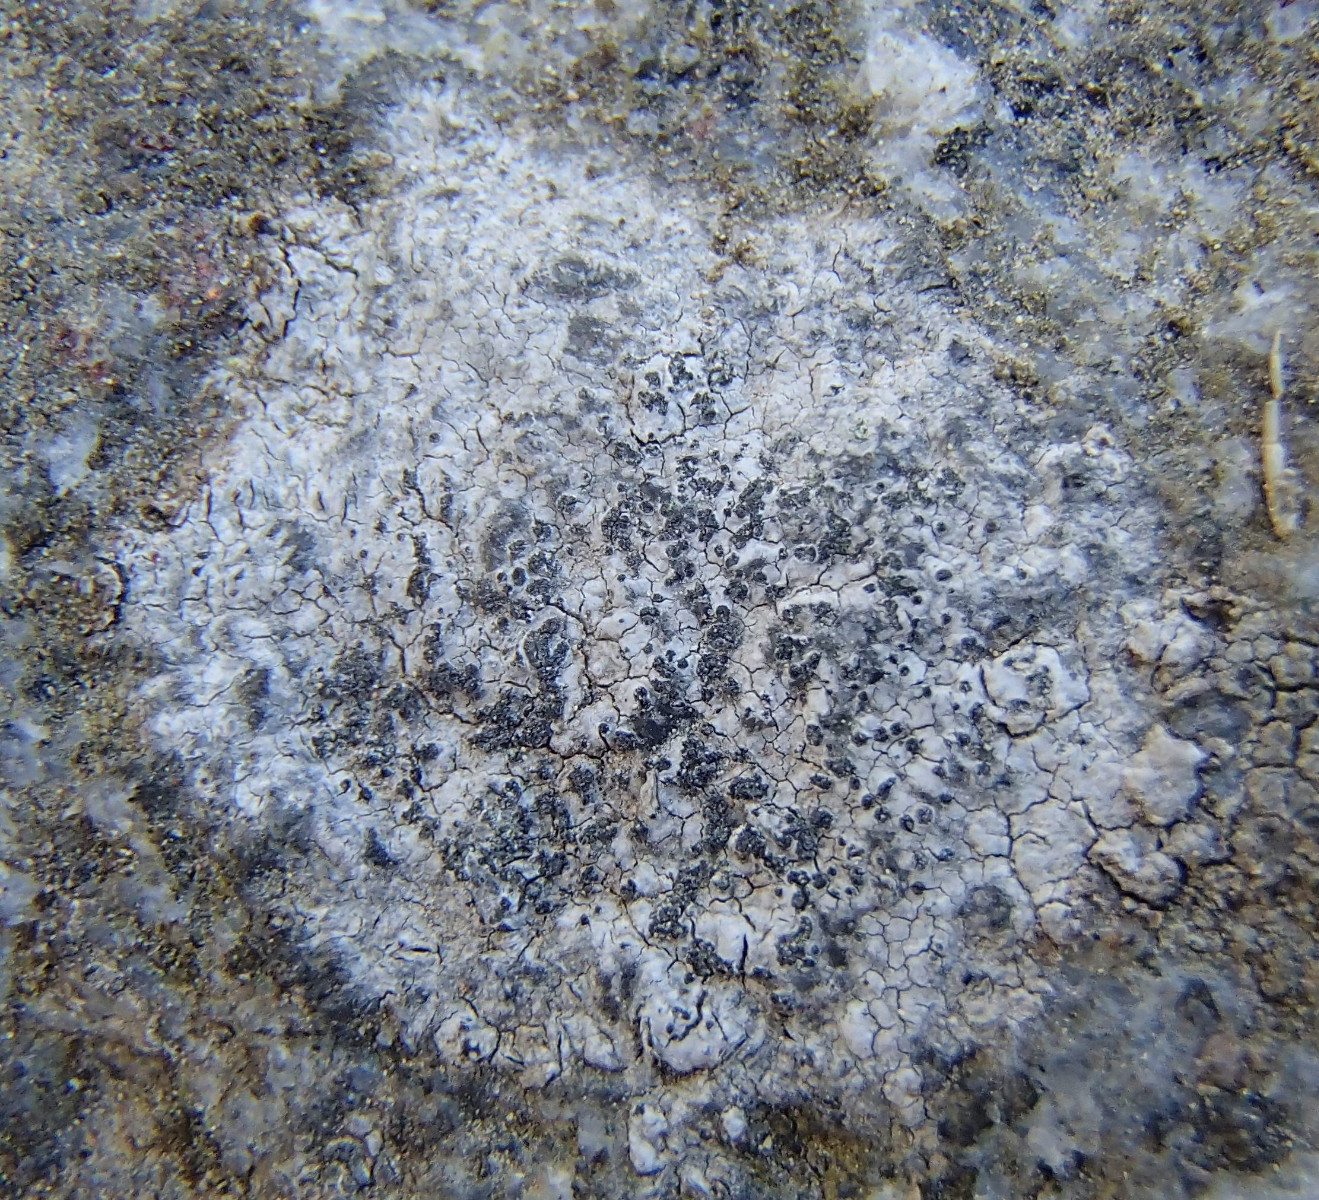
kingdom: Fungi
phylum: Ascomycota
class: Lecanoromycetes
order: Lecideales
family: Lecideaceae
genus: Porpidia
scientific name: Porpidia
